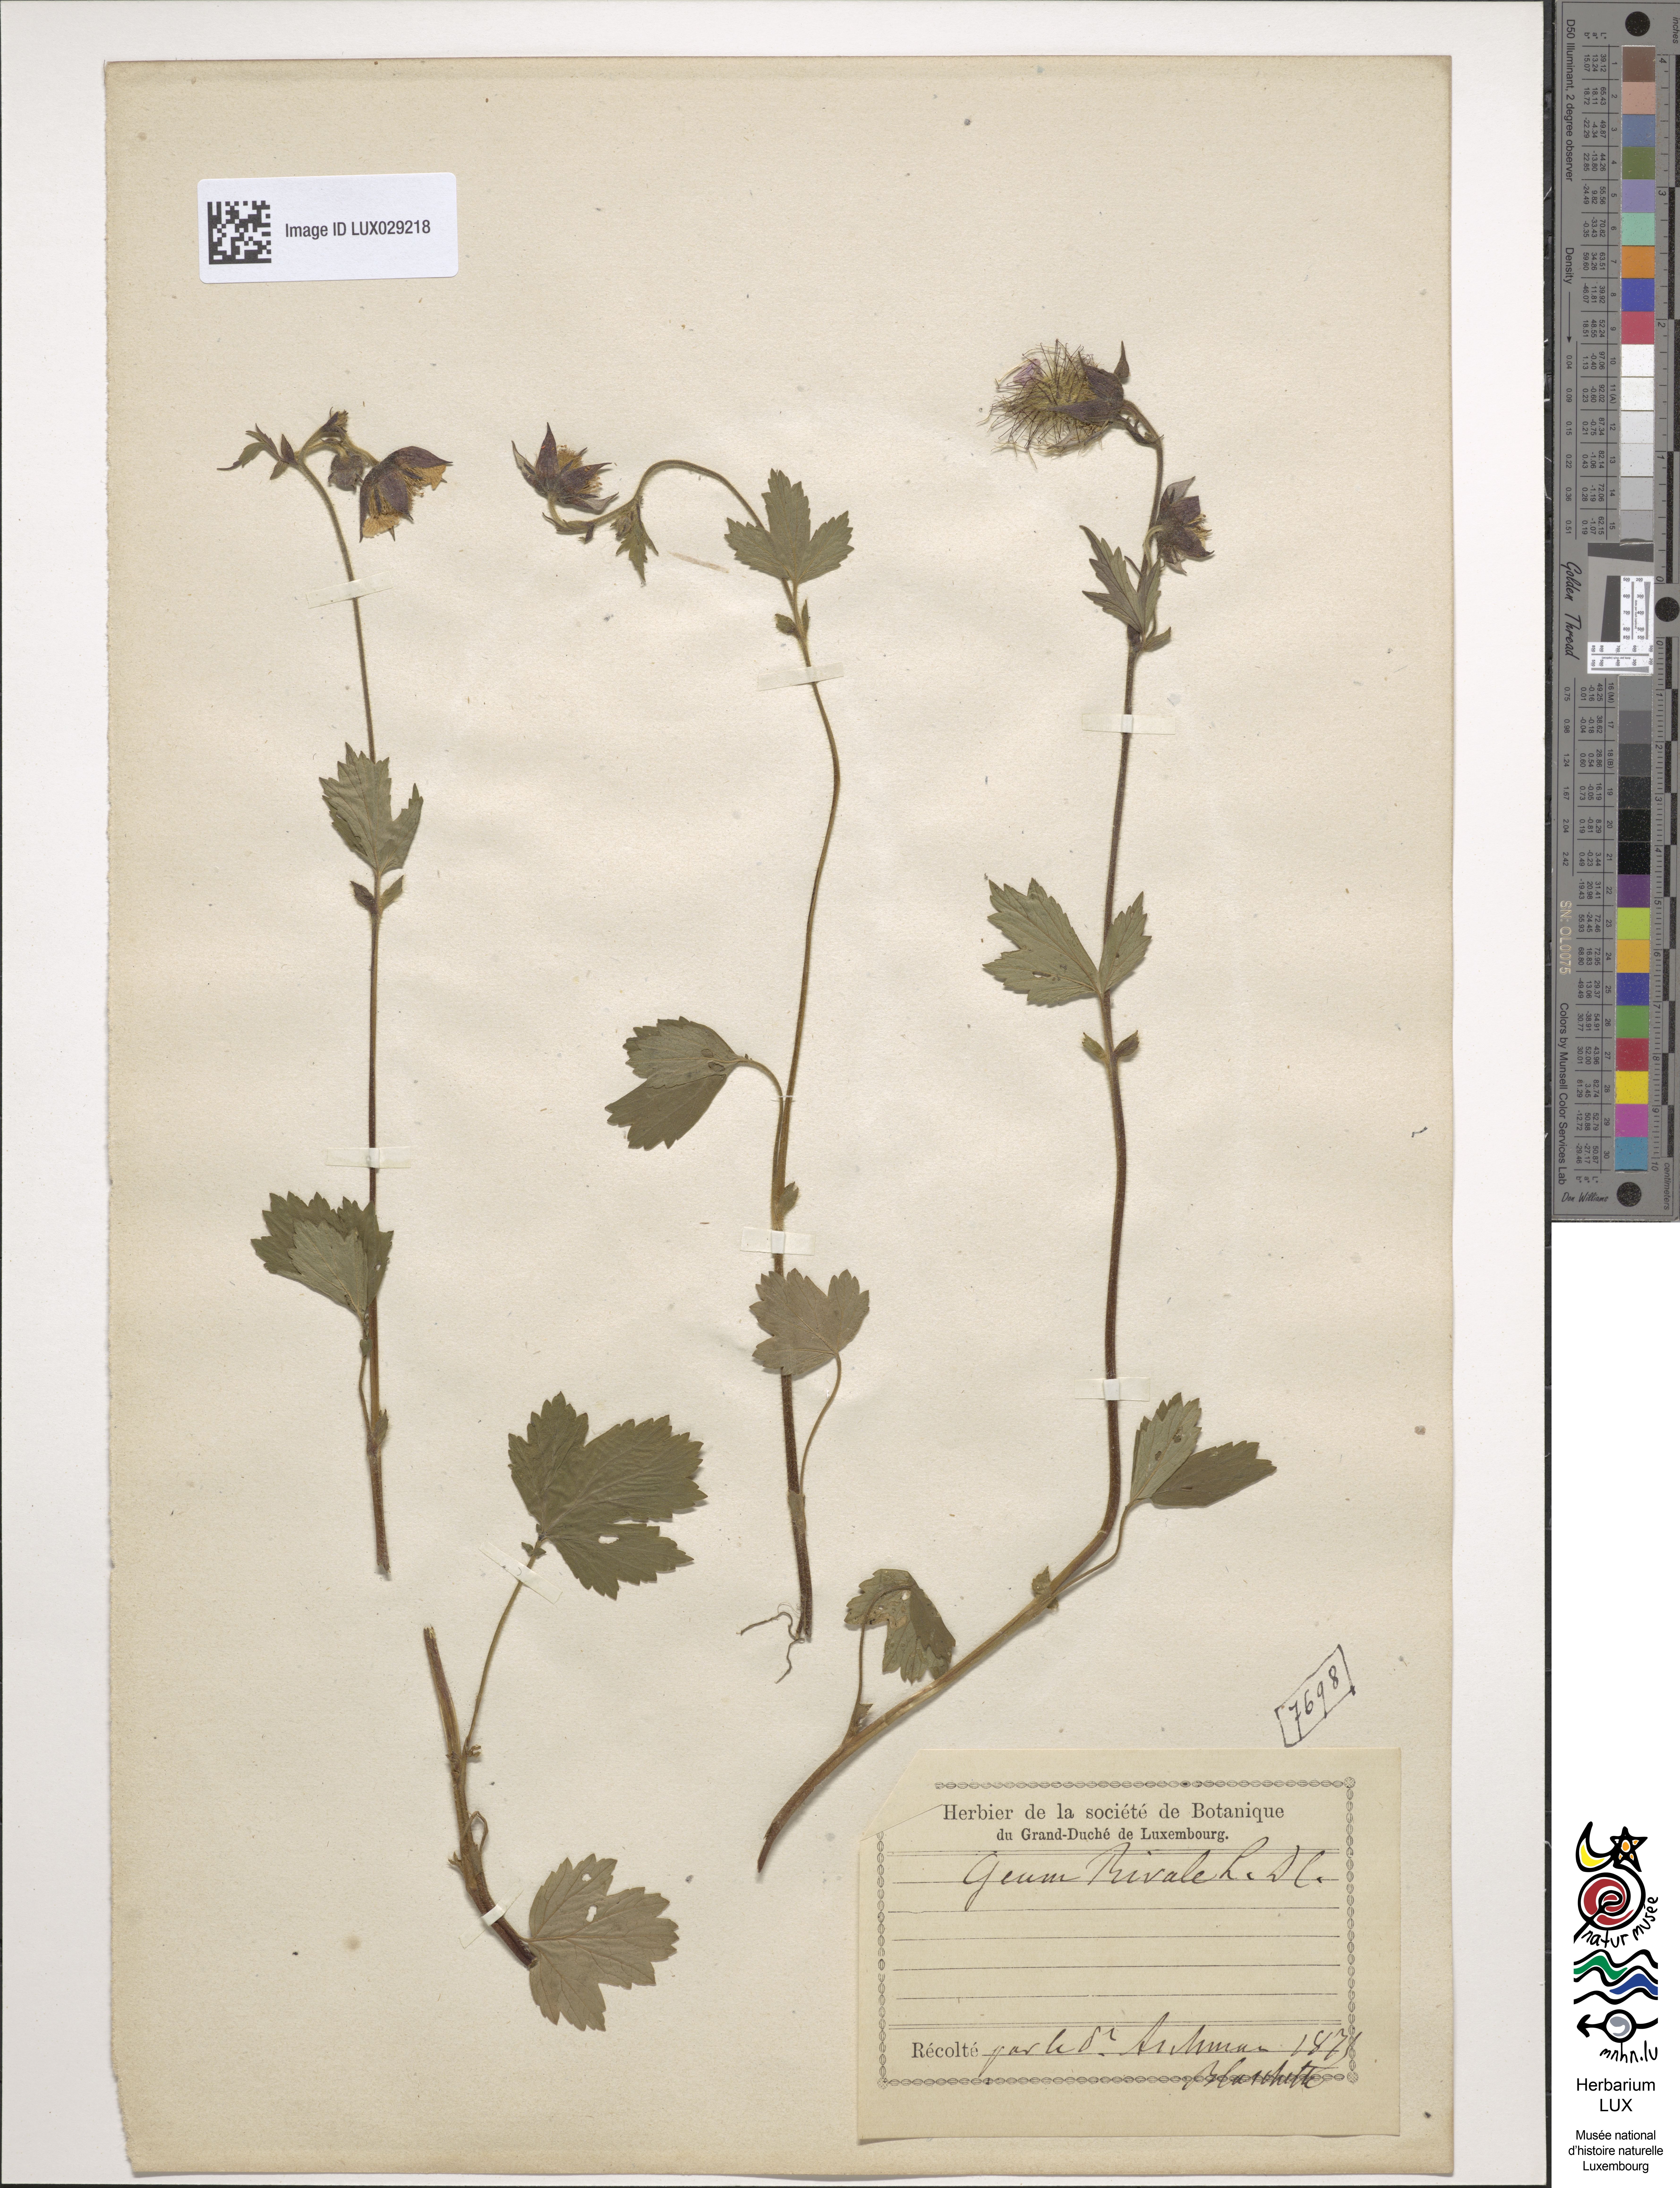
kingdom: Plantae
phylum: Tracheophyta
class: Magnoliopsida
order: Rosales
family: Rosaceae
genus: Geum
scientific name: Geum rivale
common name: Water avens
